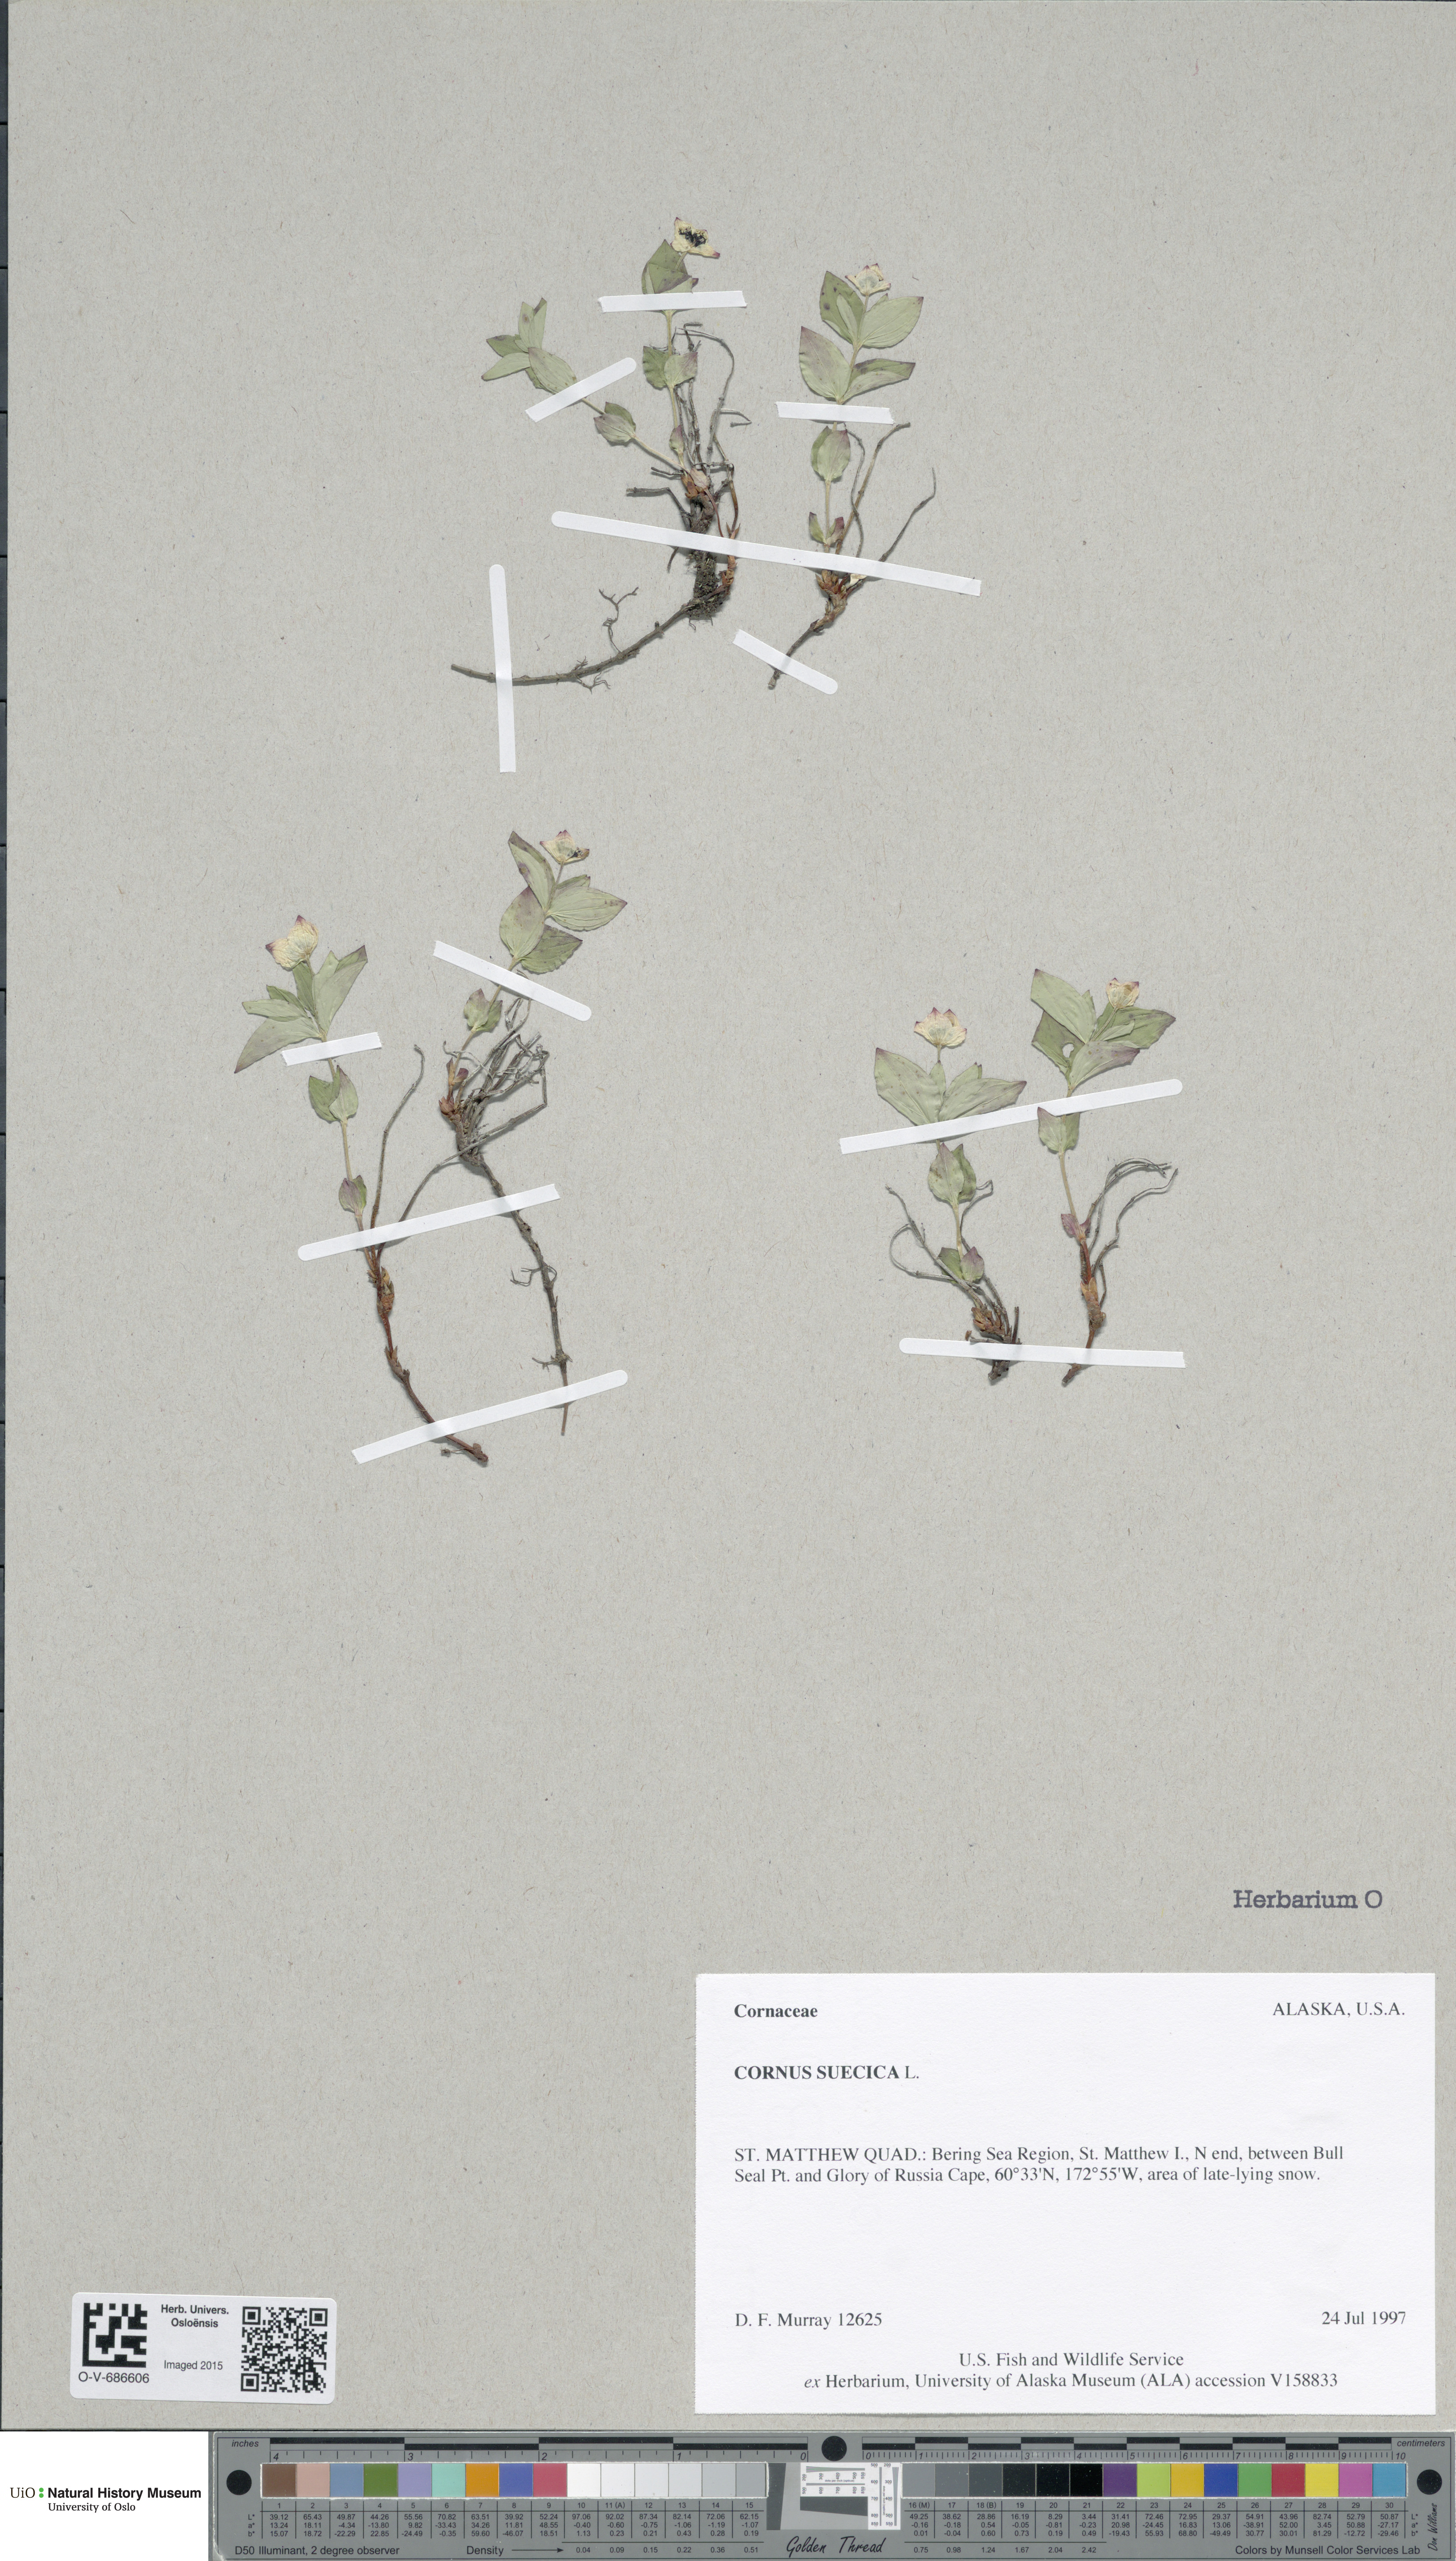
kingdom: Plantae
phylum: Tracheophyta
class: Magnoliopsida
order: Cornales
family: Cornaceae
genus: Cornus
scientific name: Cornus suecica
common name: Dwarf cornel
